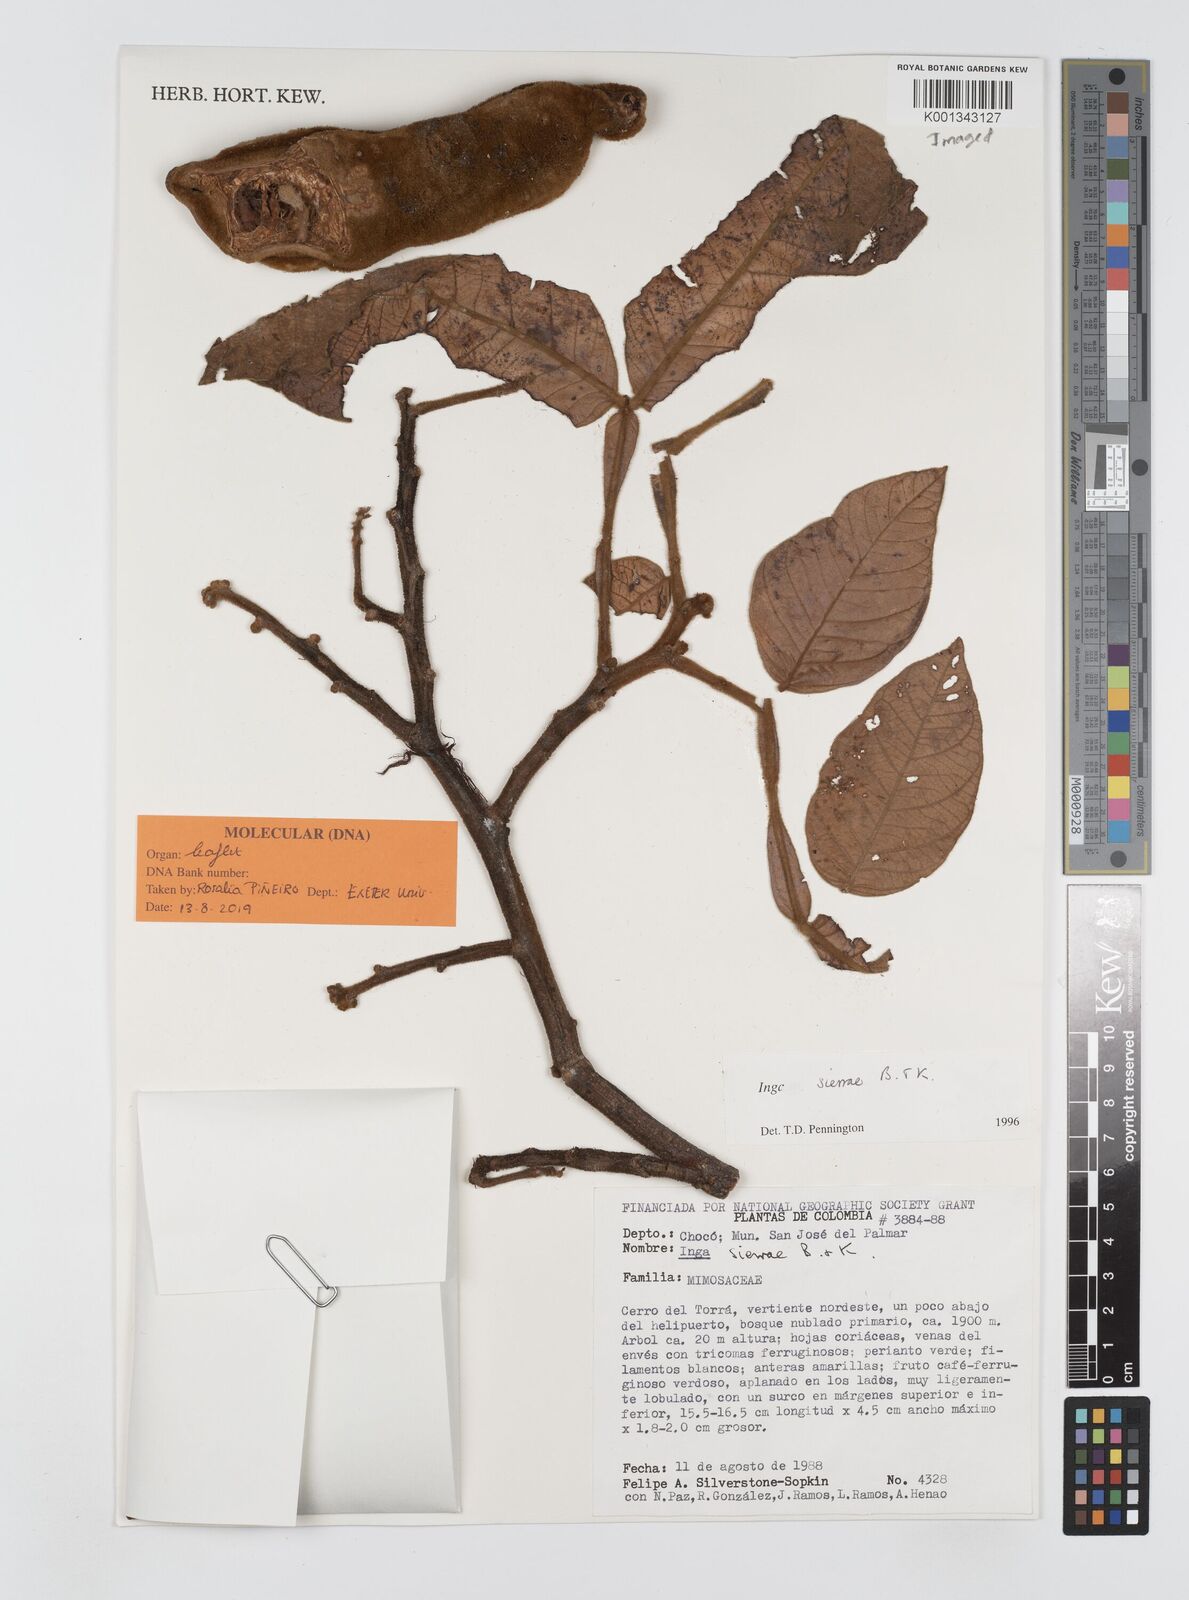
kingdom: Plantae
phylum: Tracheophyta
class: Magnoliopsida
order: Fabales
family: Fabaceae
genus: Inga
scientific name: Inga sierrae
